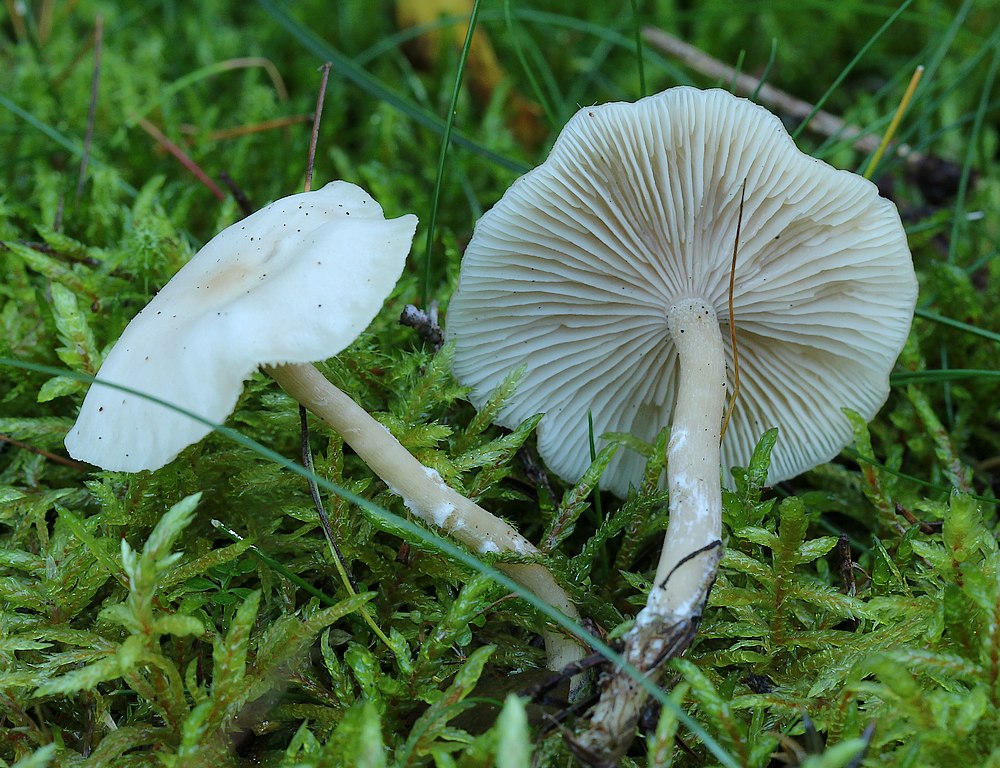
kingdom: Fungi
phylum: Basidiomycota
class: Agaricomycetes
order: Agaricales
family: Tricholomataceae
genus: Clitocybe
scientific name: Clitocybe fragrans
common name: vellugtende tragthat
